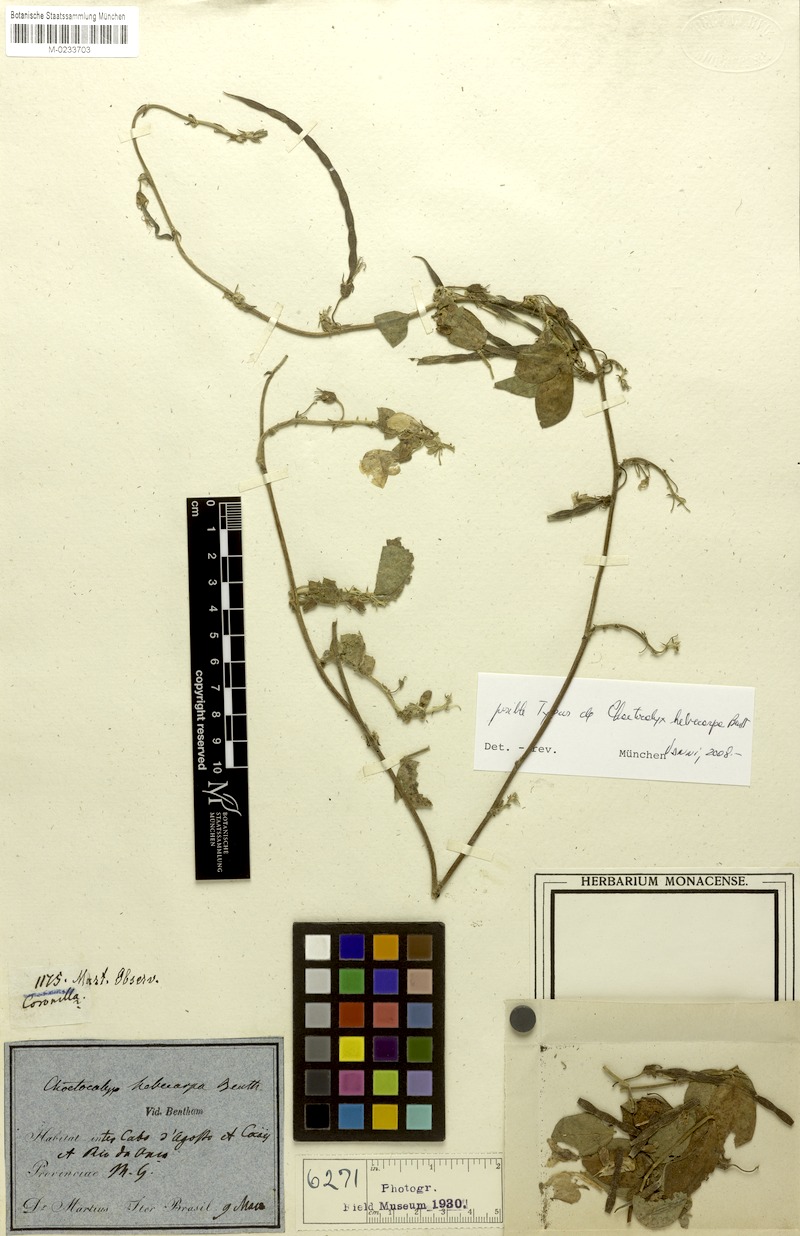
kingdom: Plantae
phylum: Tracheophyta
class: Magnoliopsida
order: Fabales
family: Fabaceae
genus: Nissolia
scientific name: Nissolia longiflora
